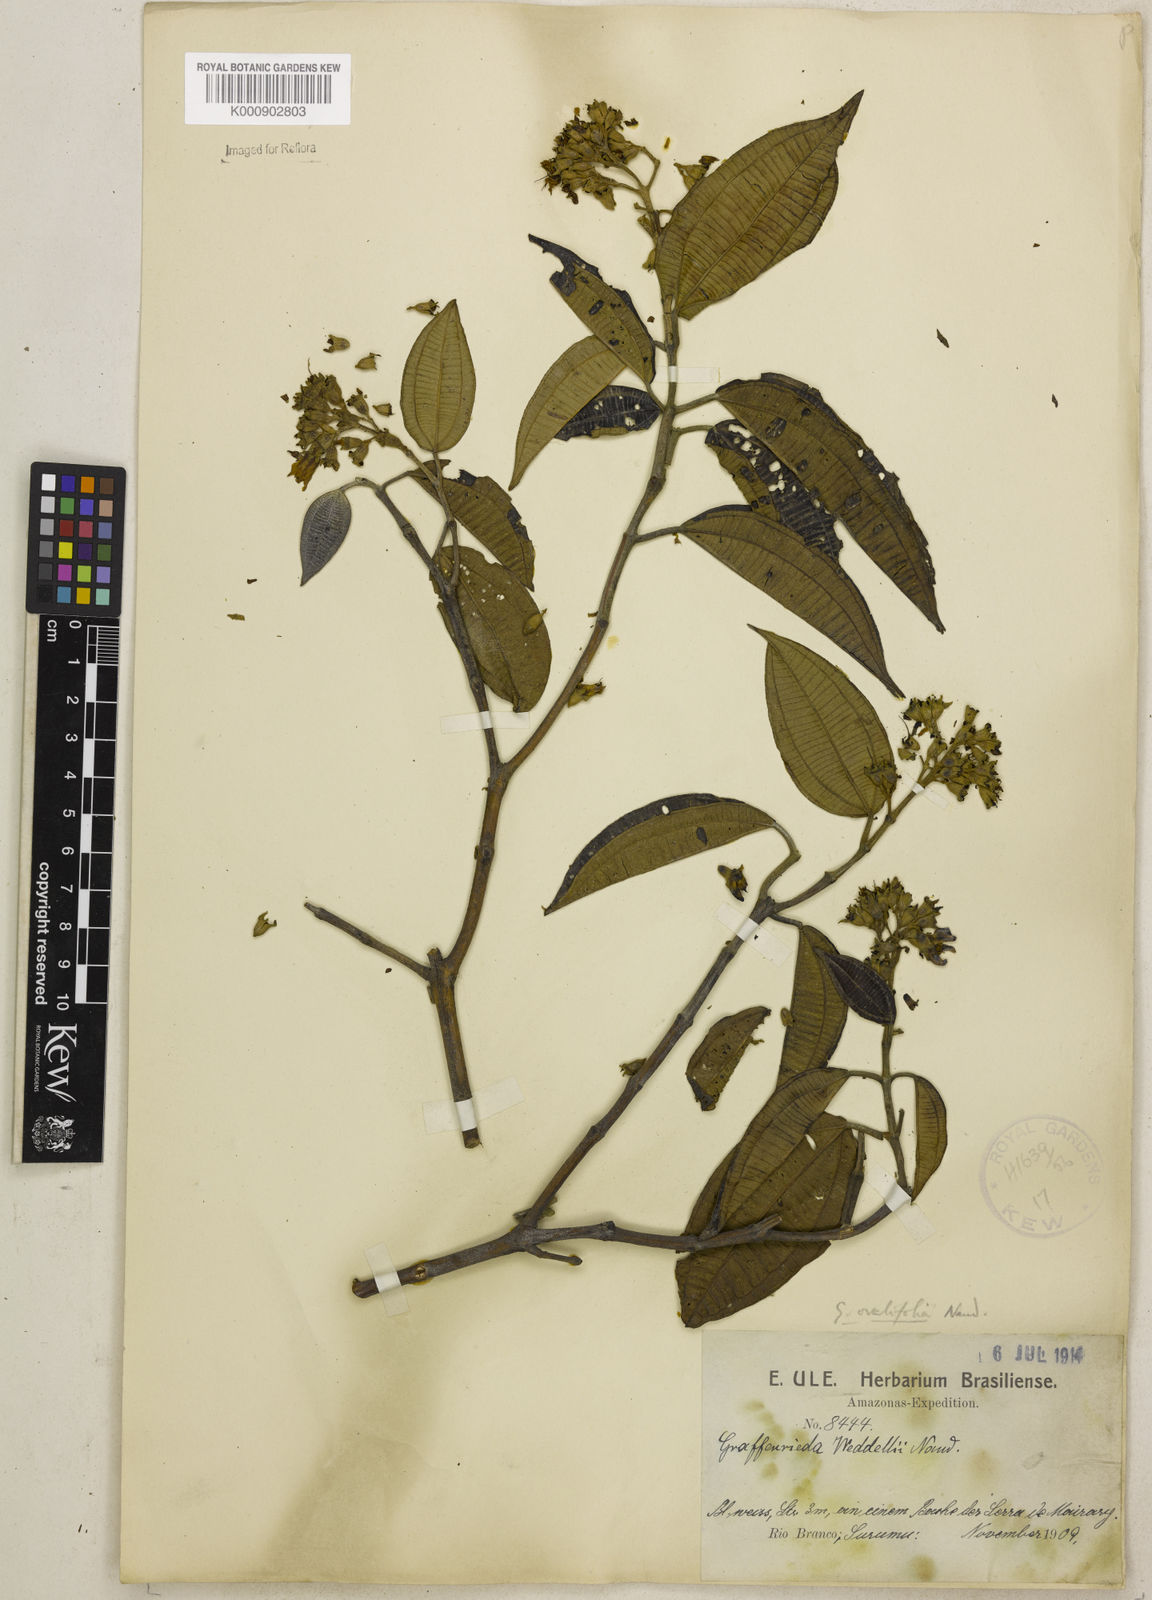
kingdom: Plantae
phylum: Tracheophyta
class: Magnoliopsida
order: Myrtales
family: Melastomataceae
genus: Graffenrieda
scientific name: Graffenrieda weddellii
